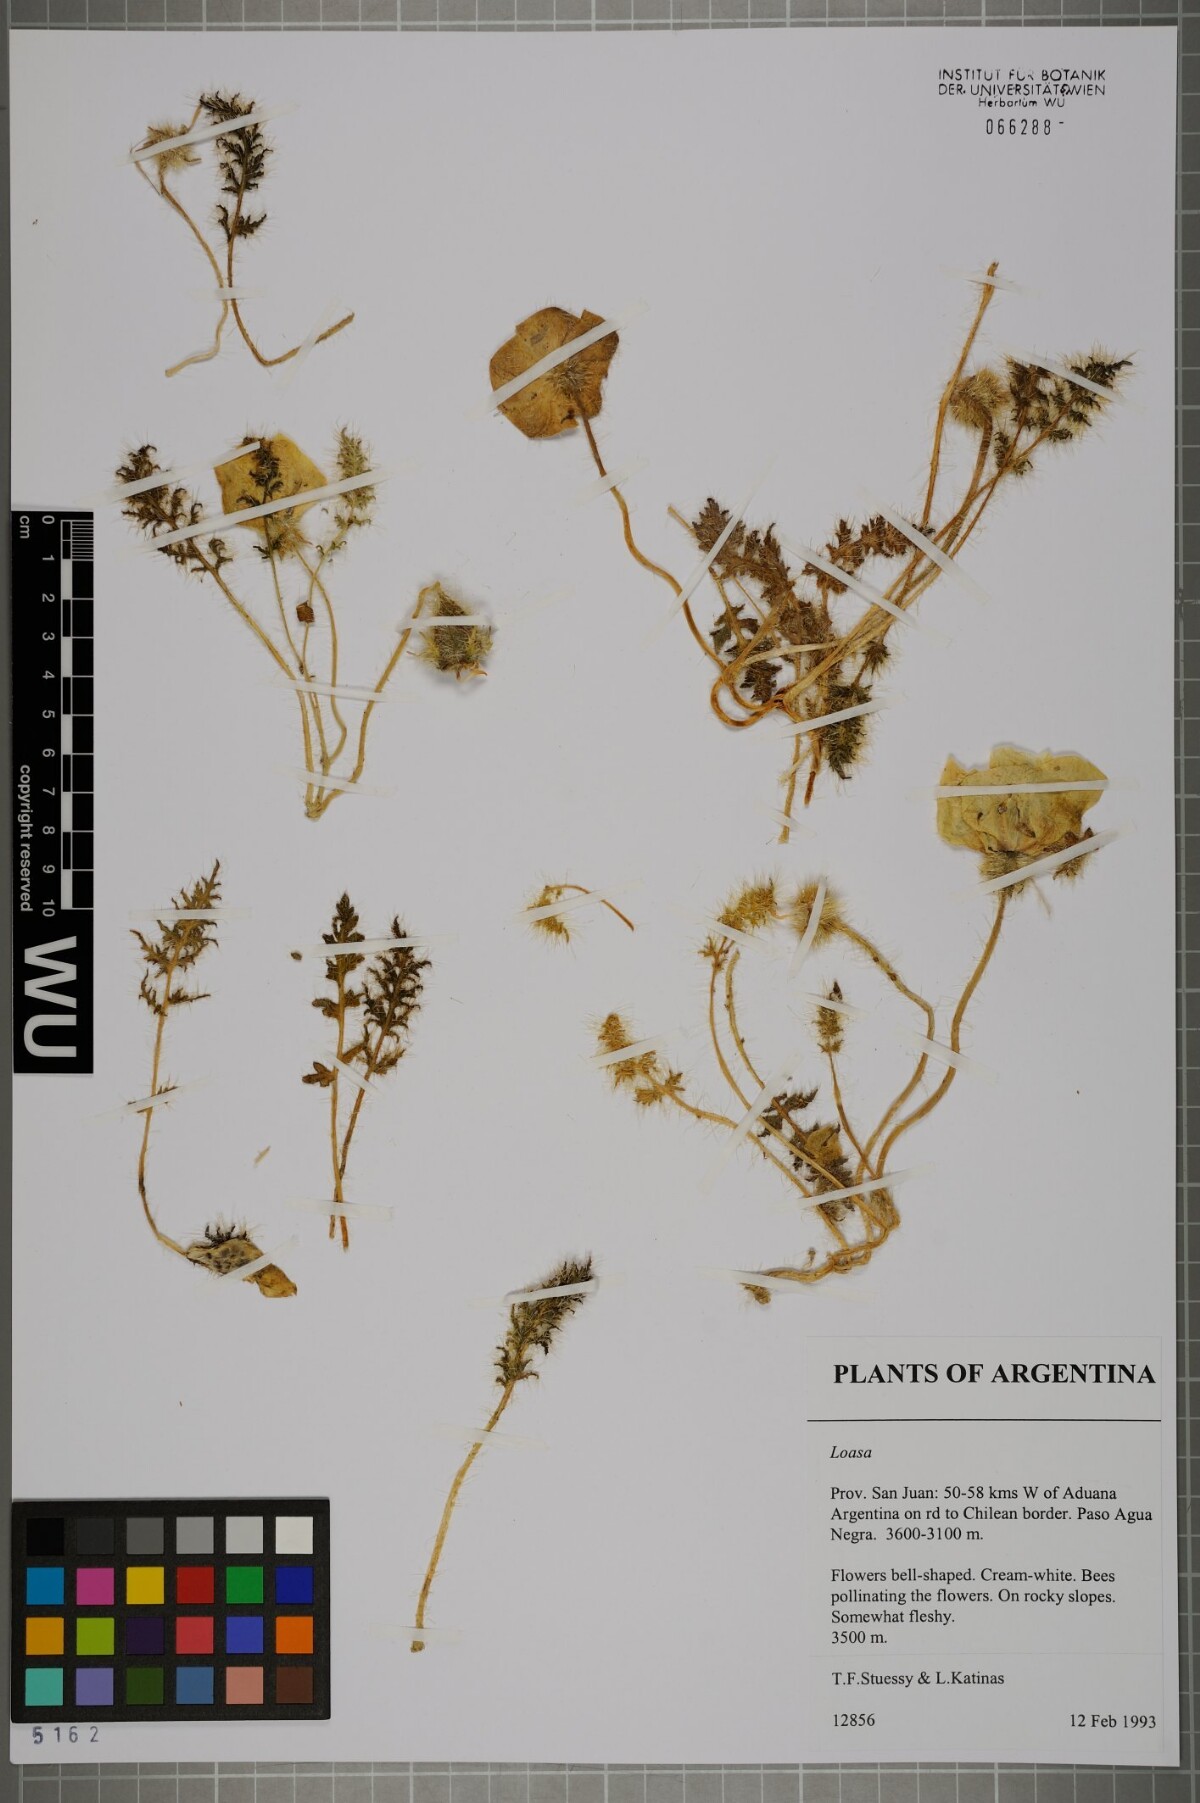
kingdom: Plantae
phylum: Tracheophyta
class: Magnoliopsida
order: Cornales
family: Loasaceae
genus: Caiophora
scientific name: Caiophora coronata
